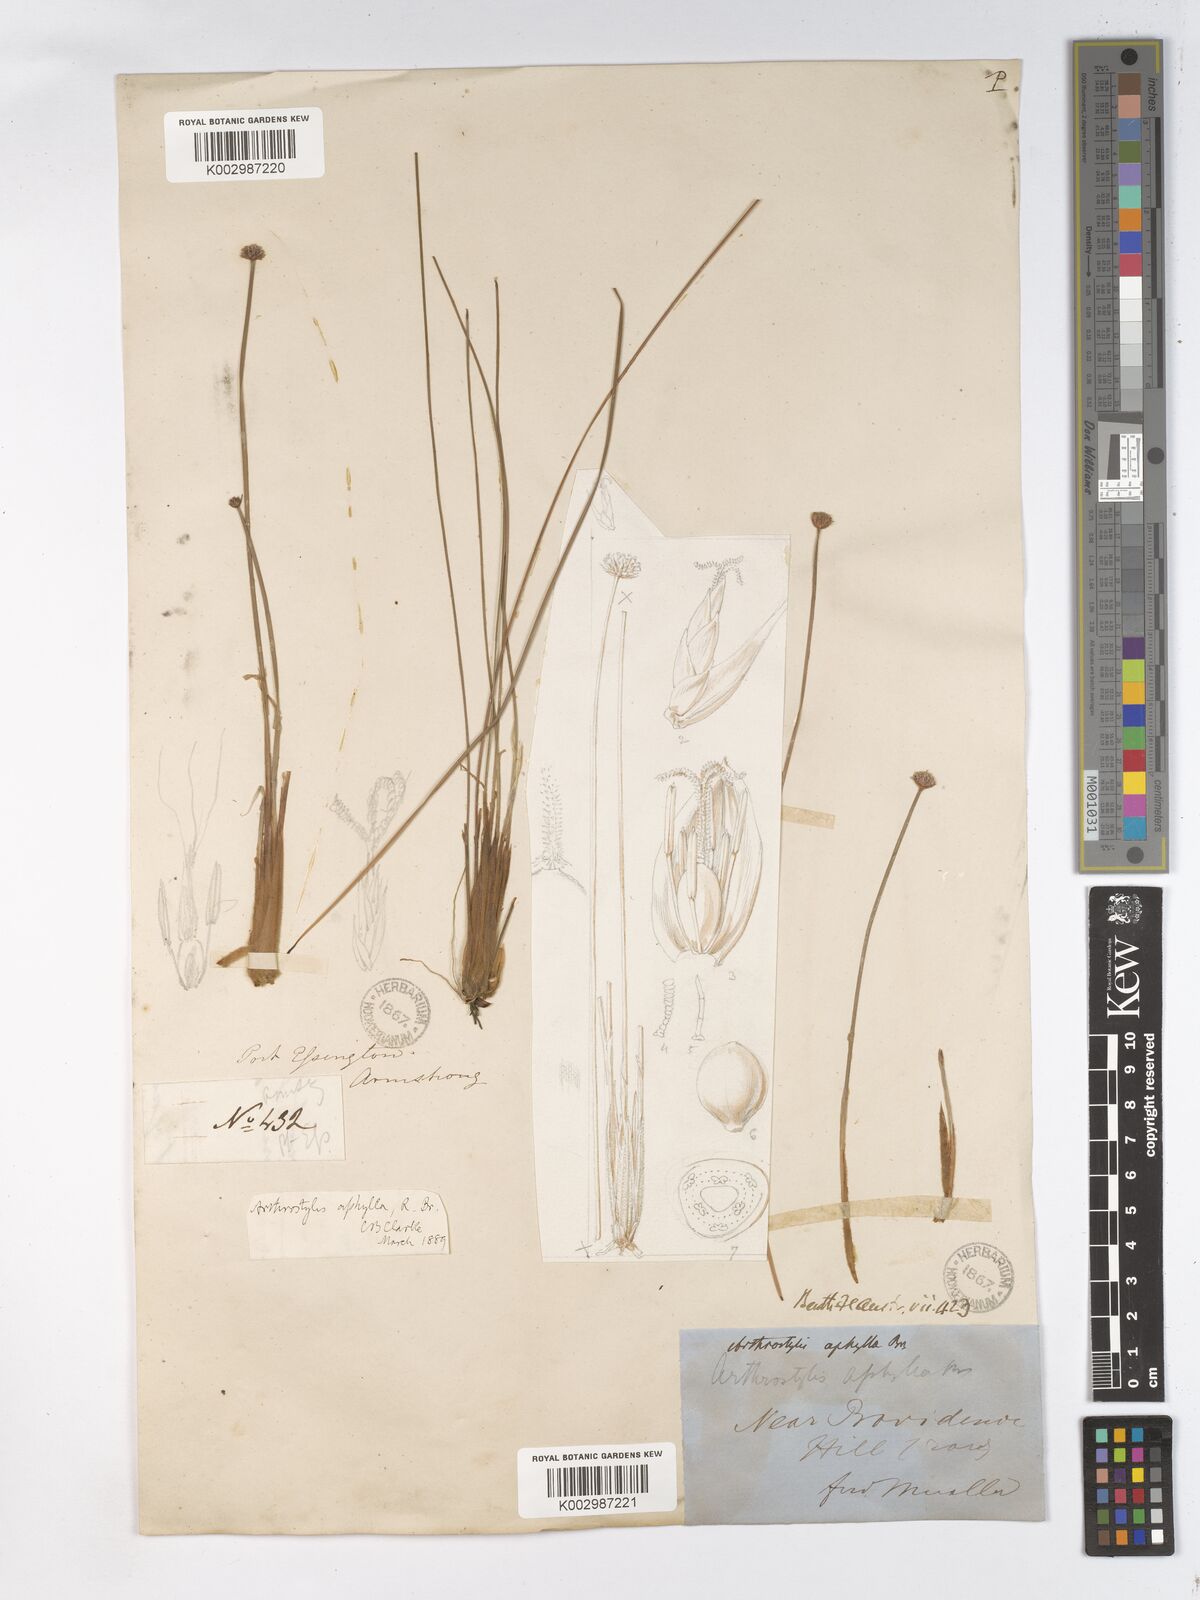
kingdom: Plantae
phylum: Tracheophyta
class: Liliopsida
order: Poales
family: Cyperaceae
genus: Arthrostylis
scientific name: Arthrostylis aphylla
